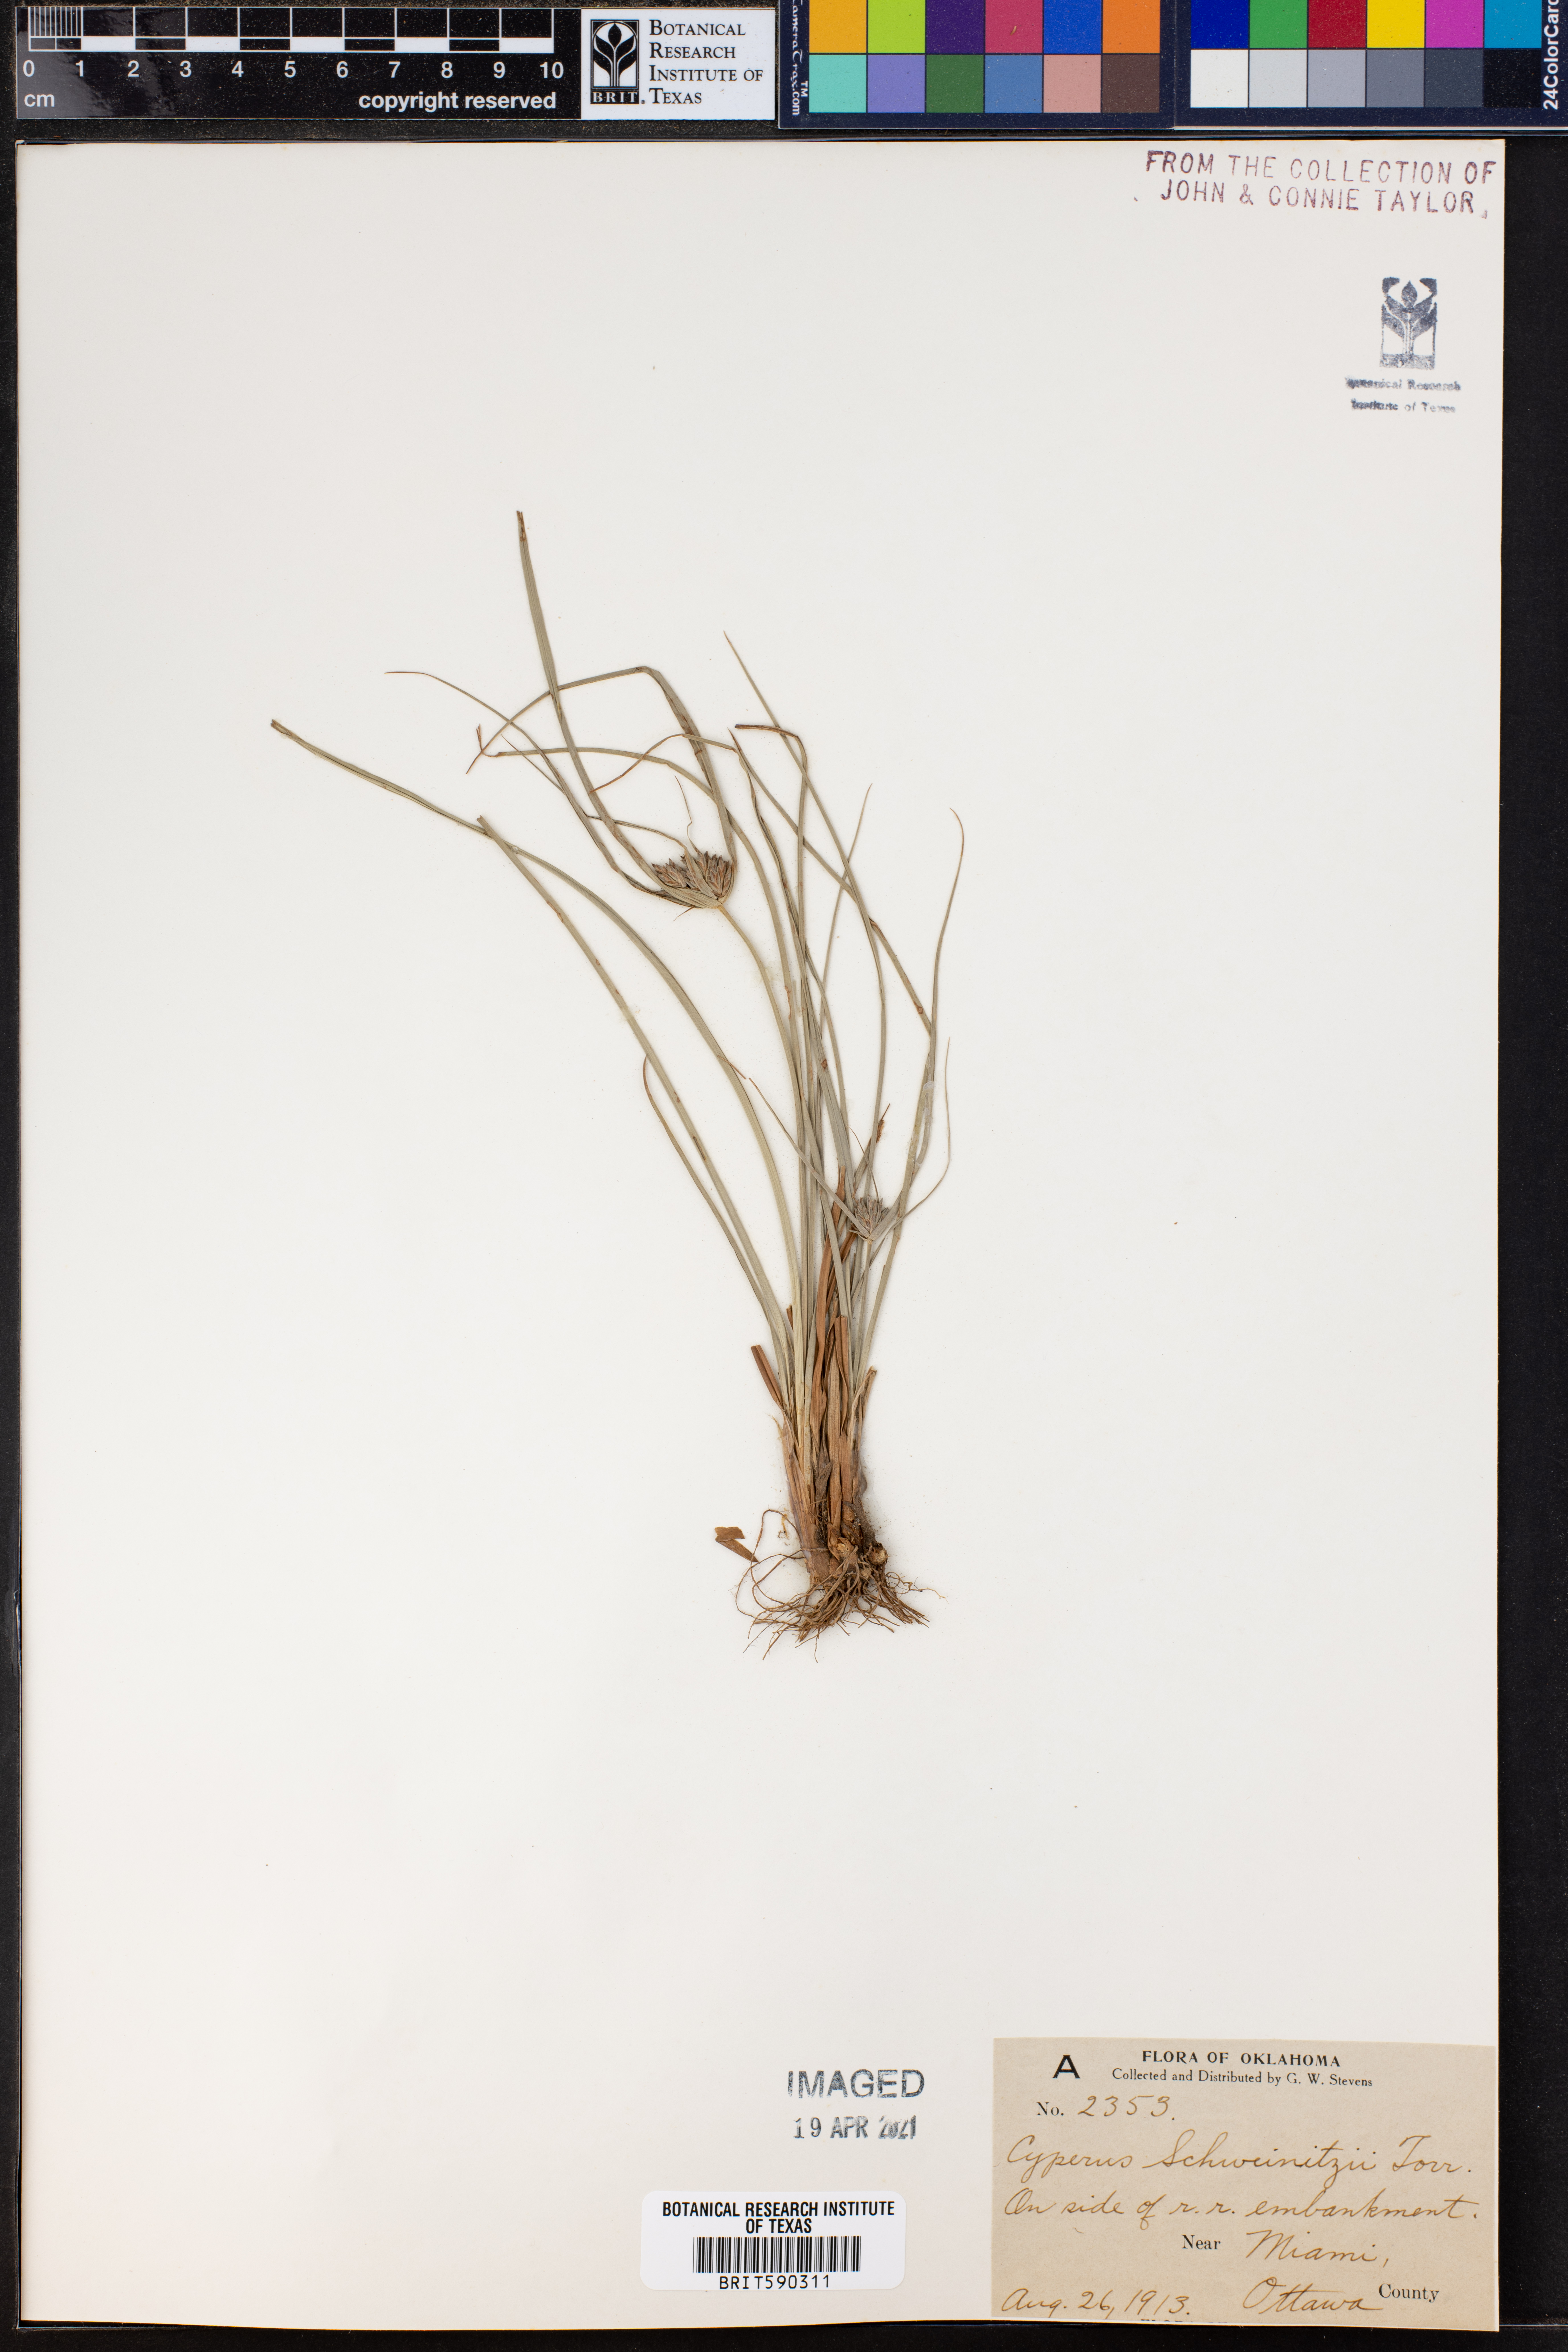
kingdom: Plantae
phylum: Tracheophyta
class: Liliopsida
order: Poales
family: Cyperaceae
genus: Cyperus
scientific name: Cyperus schweinitzii
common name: Schweinitz's cyperus
